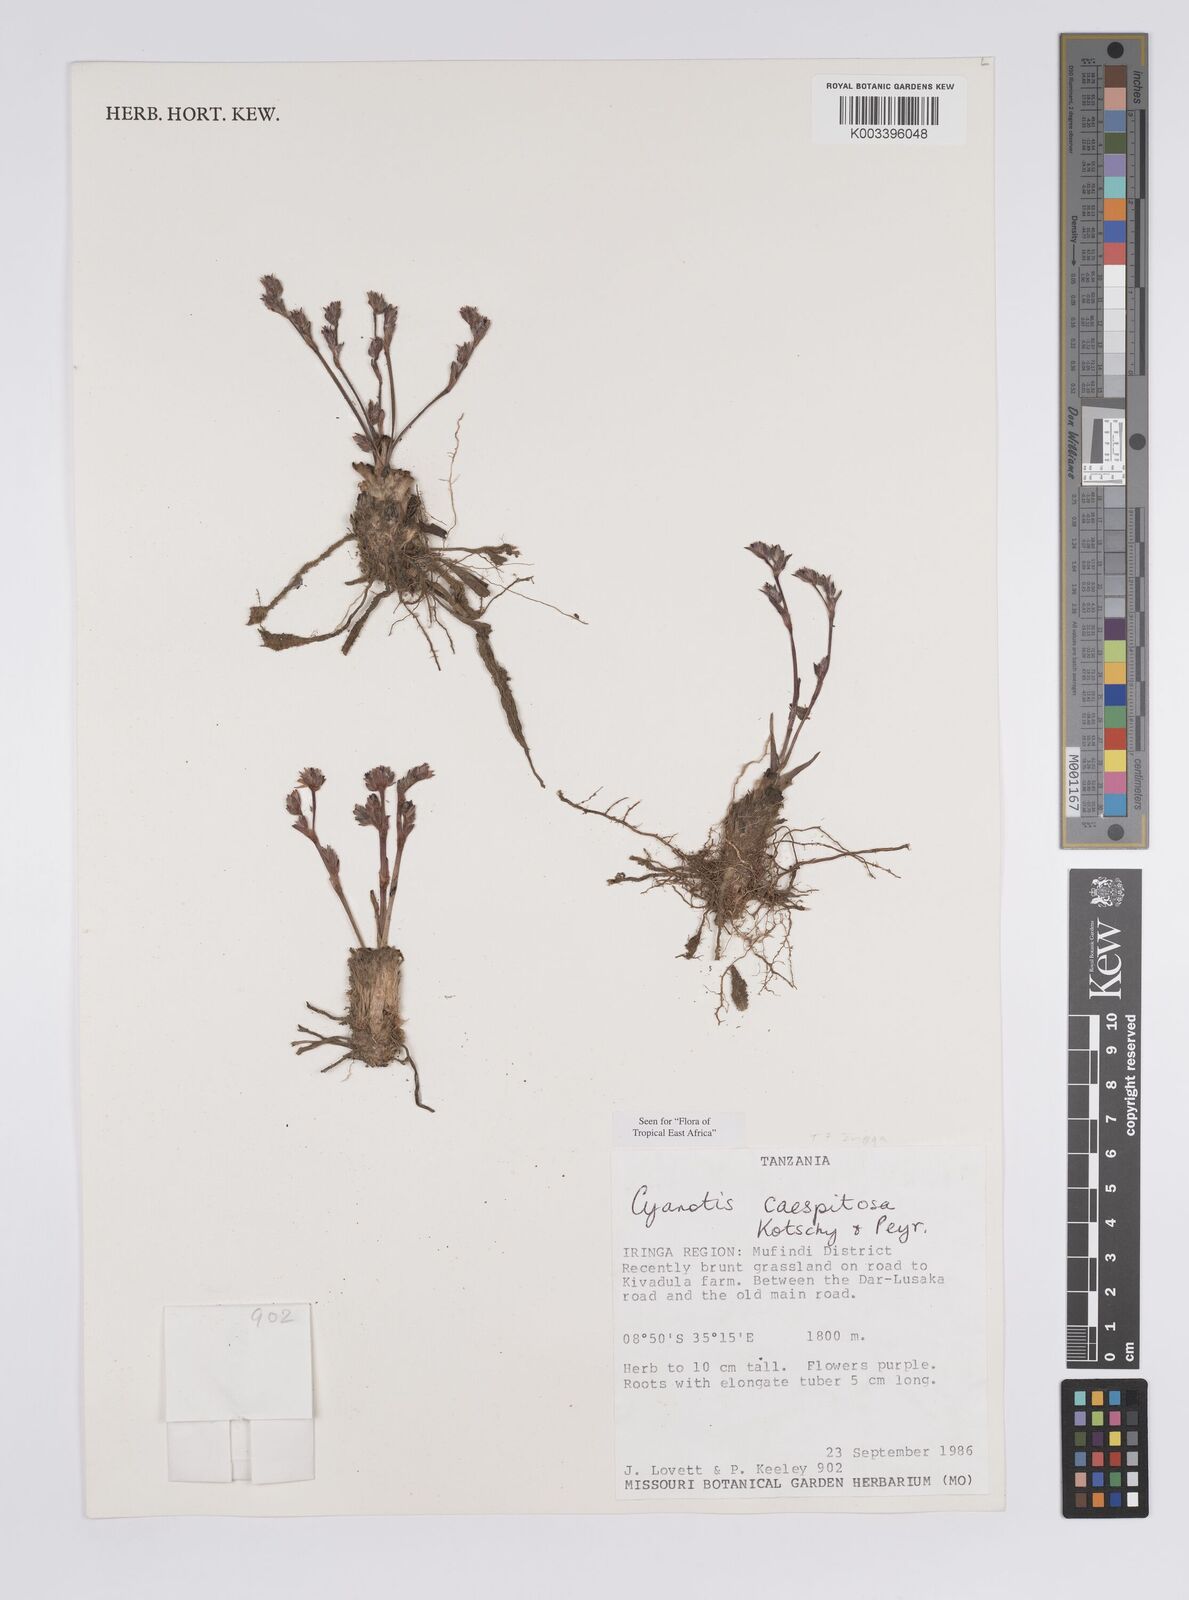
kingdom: Plantae
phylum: Tracheophyta
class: Liliopsida
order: Commelinales
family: Commelinaceae
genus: Cyanotis
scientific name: Cyanotis caespitosa
